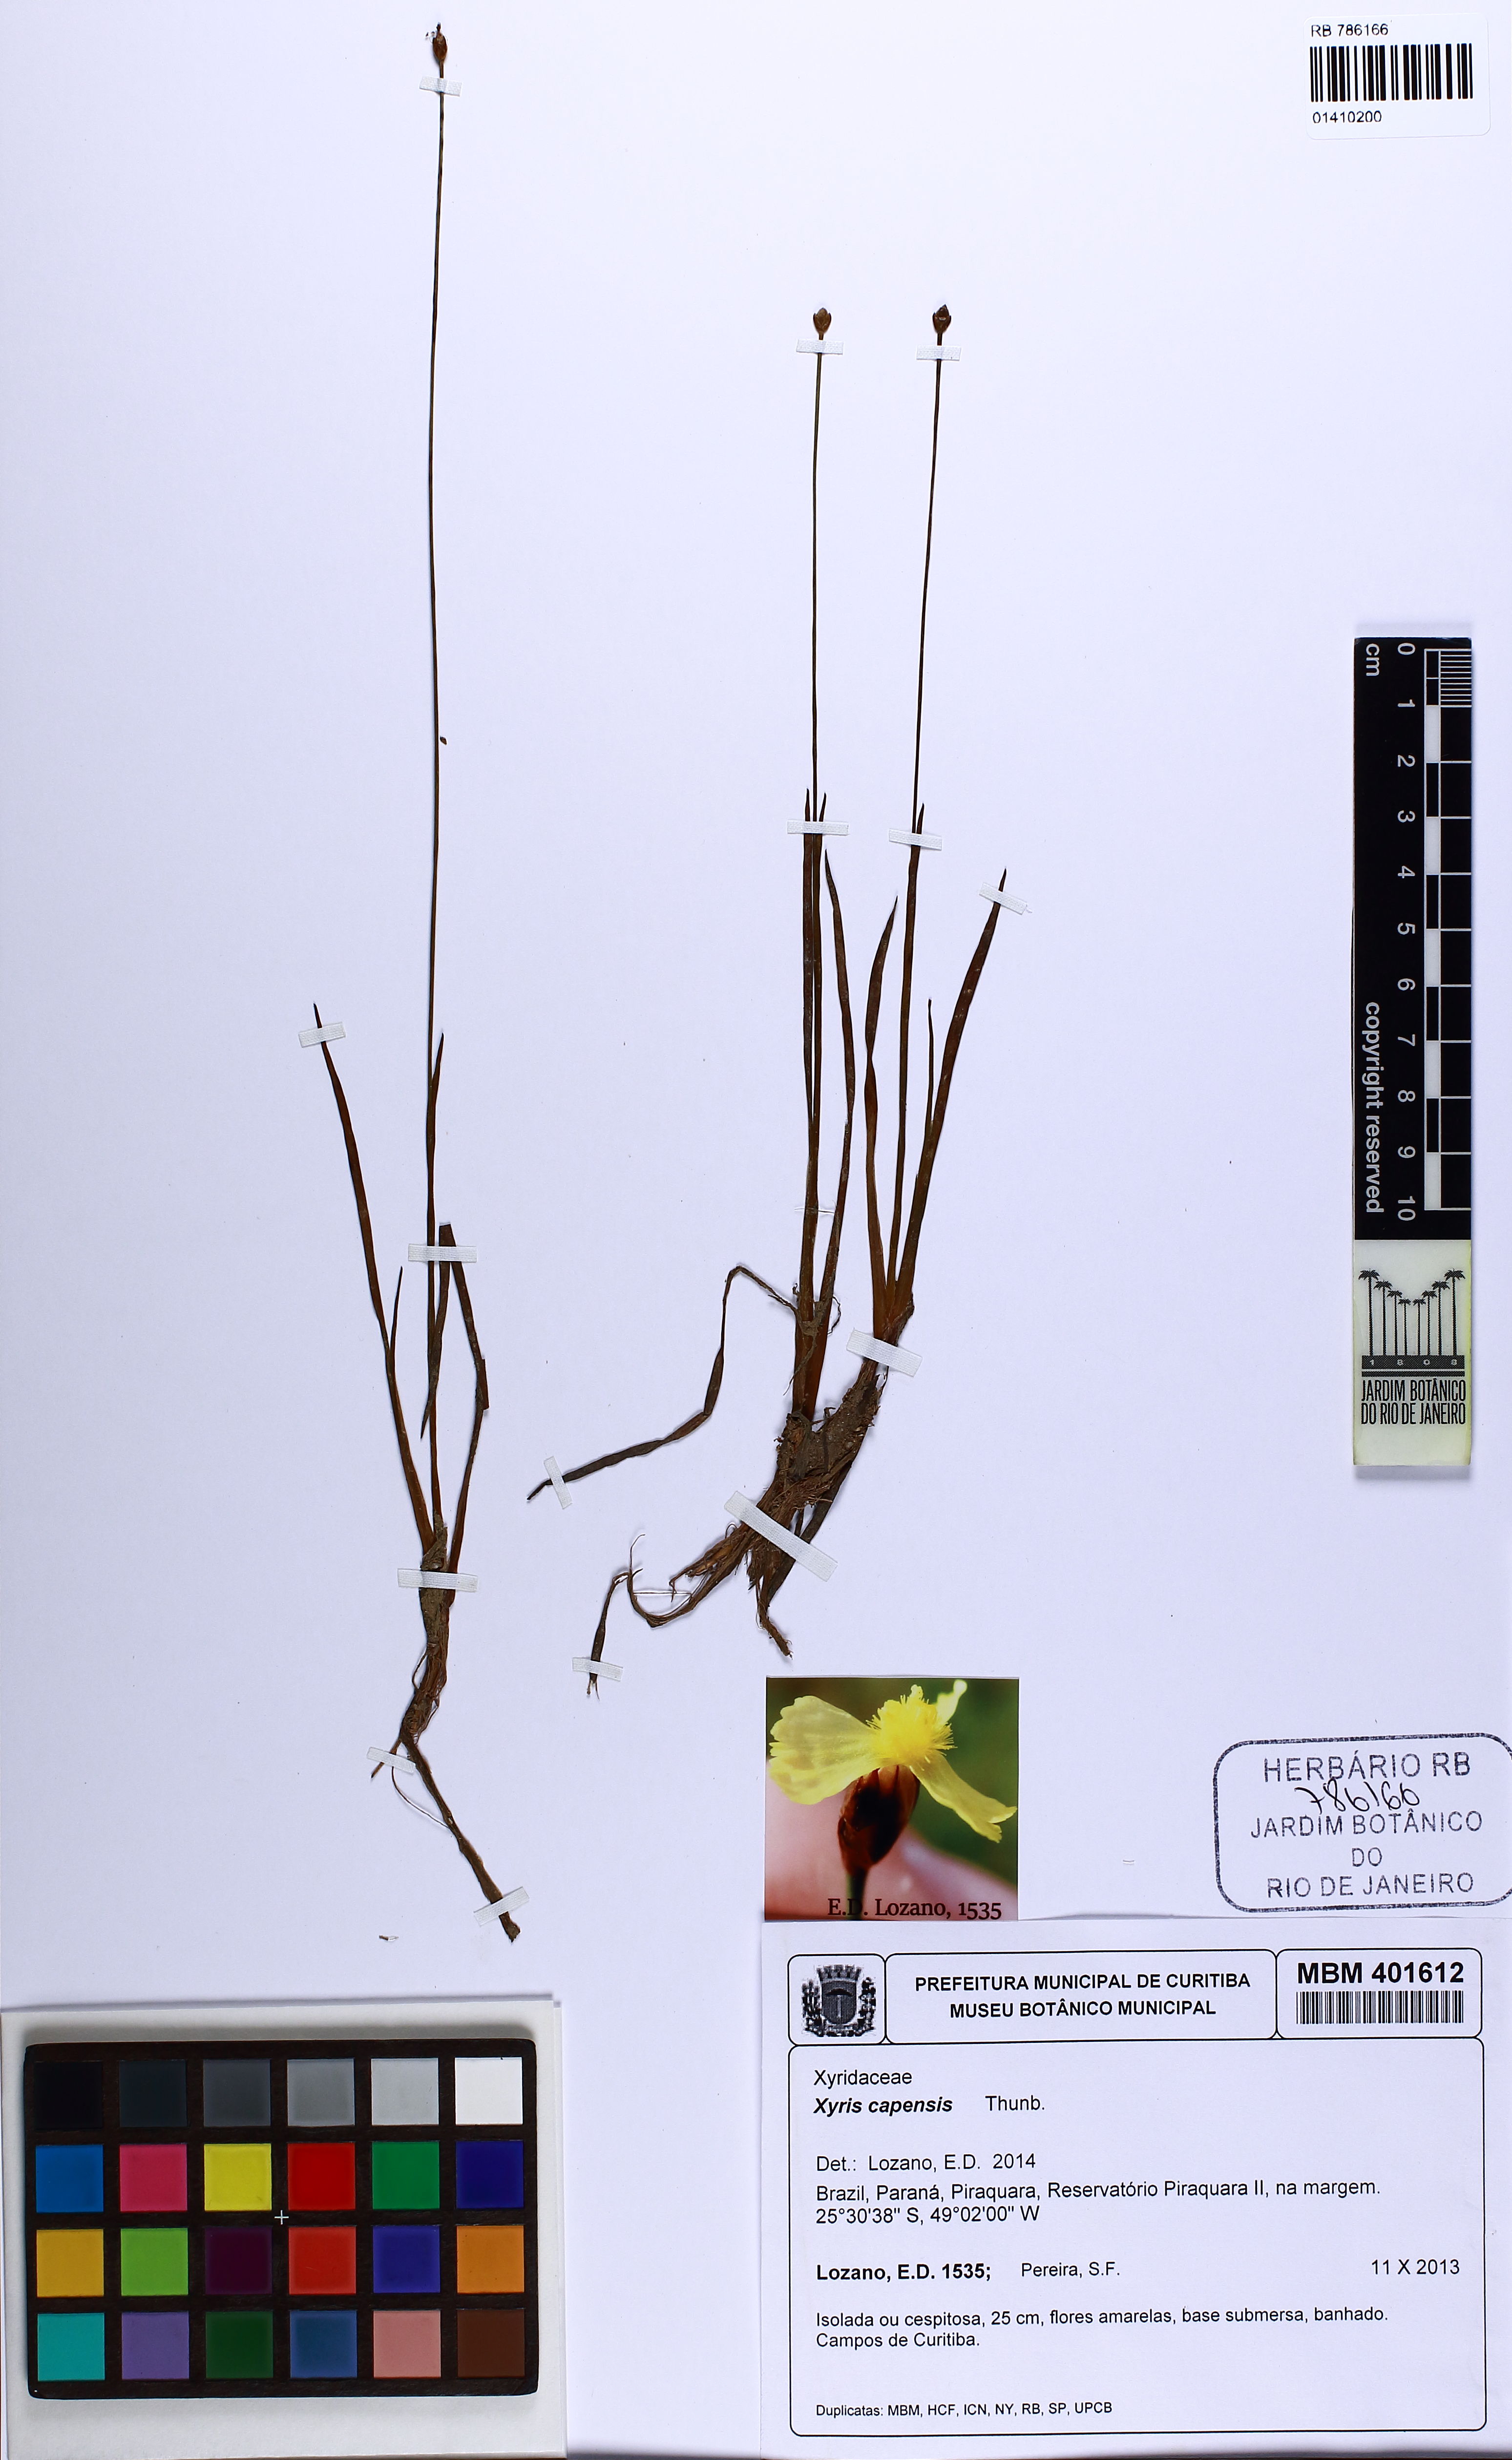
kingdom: Plantae
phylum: Tracheophyta
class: Liliopsida
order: Poales
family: Xyridaceae
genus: Xyris
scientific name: Xyris capensis
